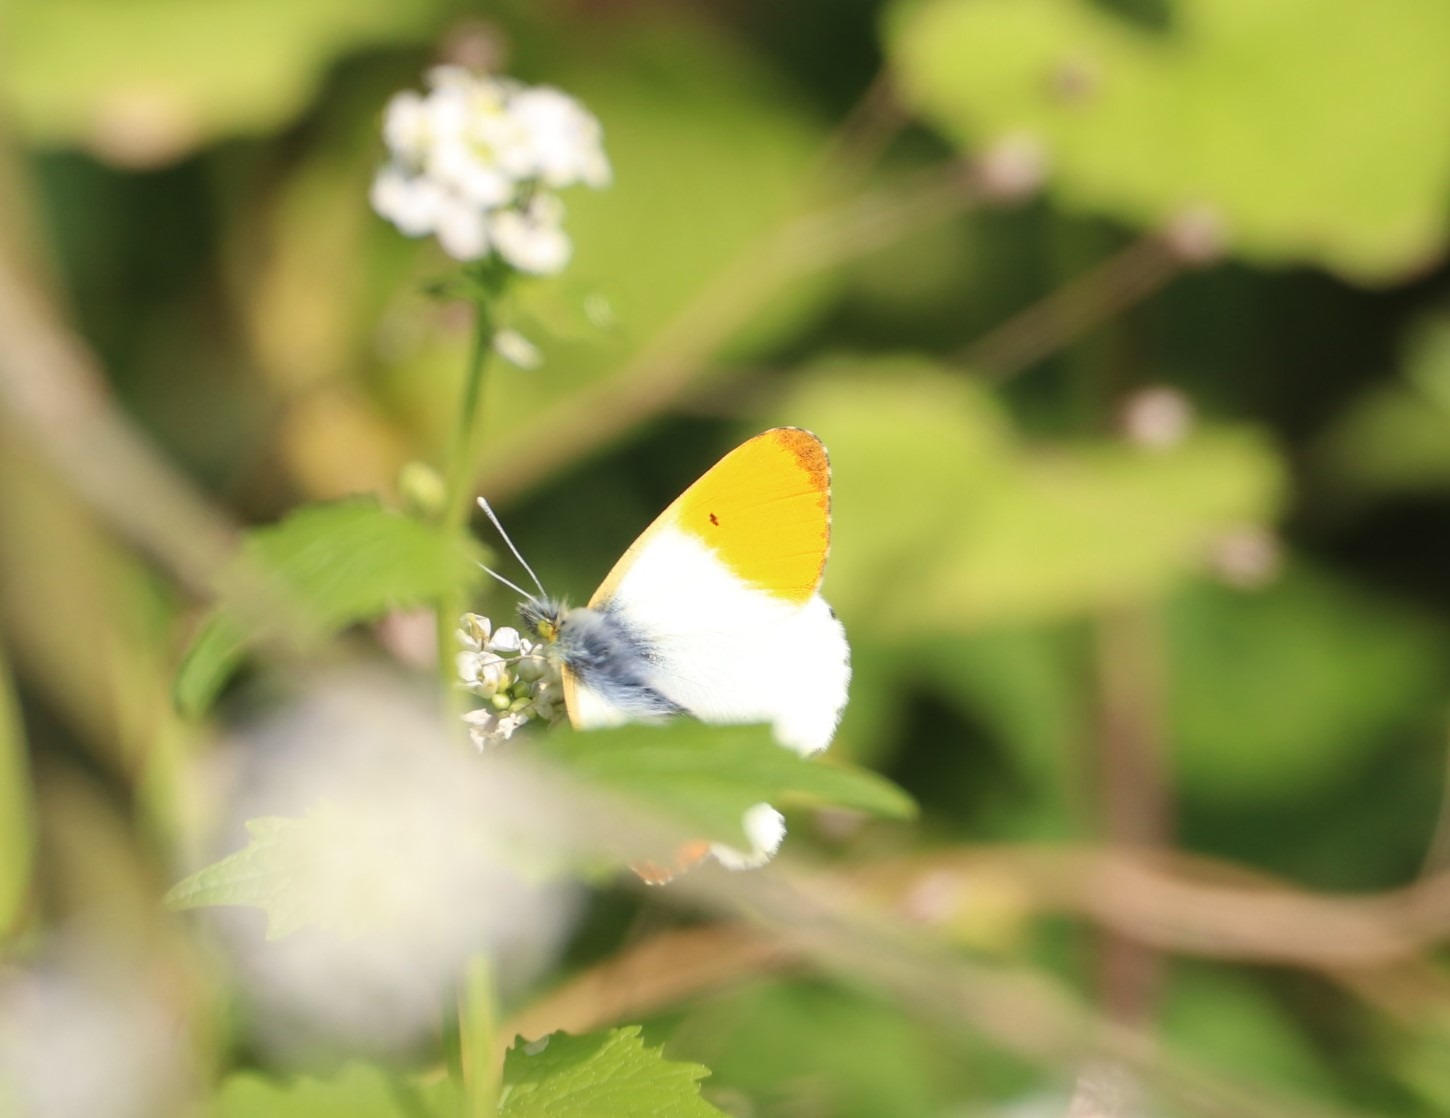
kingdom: Animalia
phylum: Arthropoda
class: Insecta
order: Lepidoptera
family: Pieridae
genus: Anthocharis
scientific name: Anthocharis cardamines
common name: Aurora
